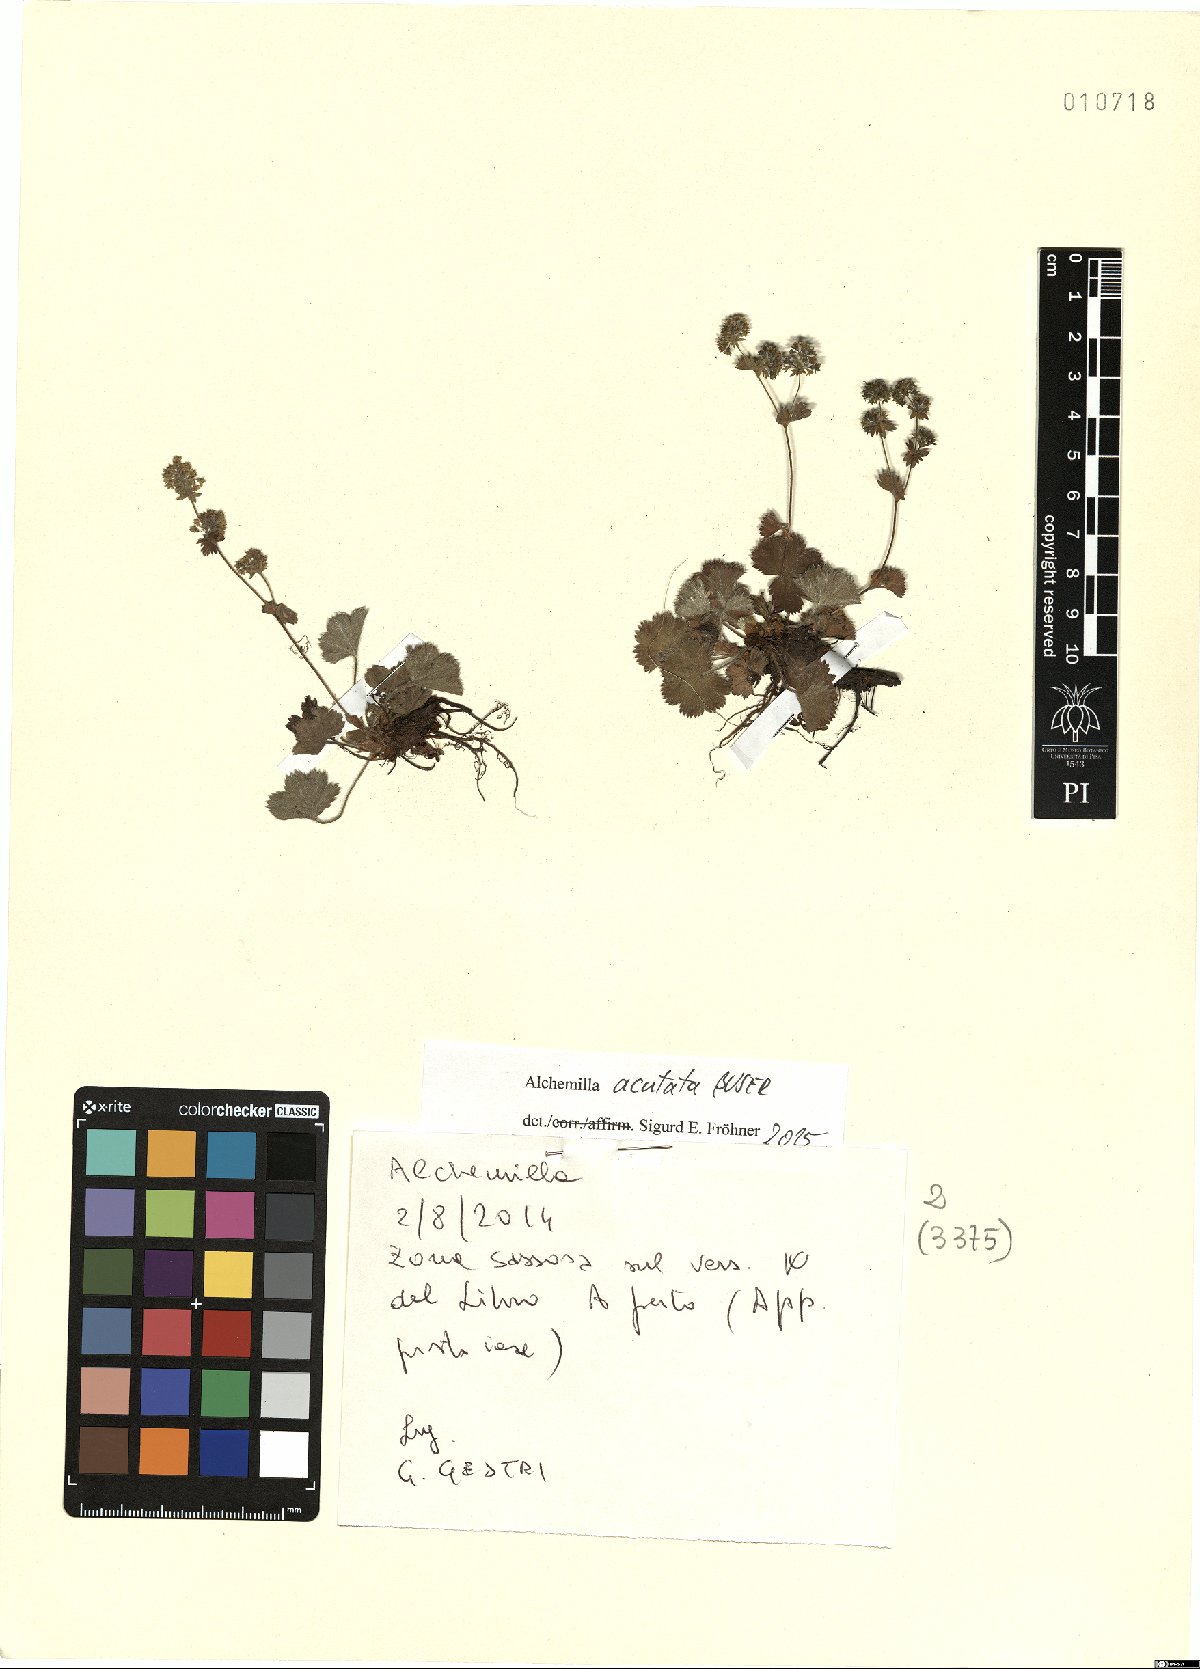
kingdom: Plantae
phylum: Tracheophyta
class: Magnoliopsida
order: Rosales
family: Rosaceae
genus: Alchemilla
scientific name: Alchemilla acutata
